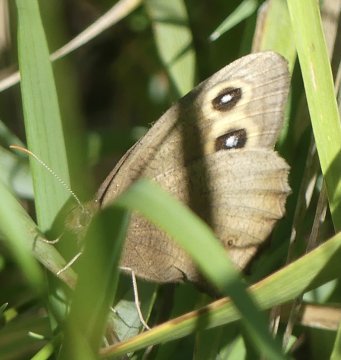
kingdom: Animalia
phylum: Arthropoda
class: Insecta
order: Lepidoptera
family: Nymphalidae
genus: Cercyonis
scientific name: Cercyonis pegala
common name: Common Wood-Nymph
